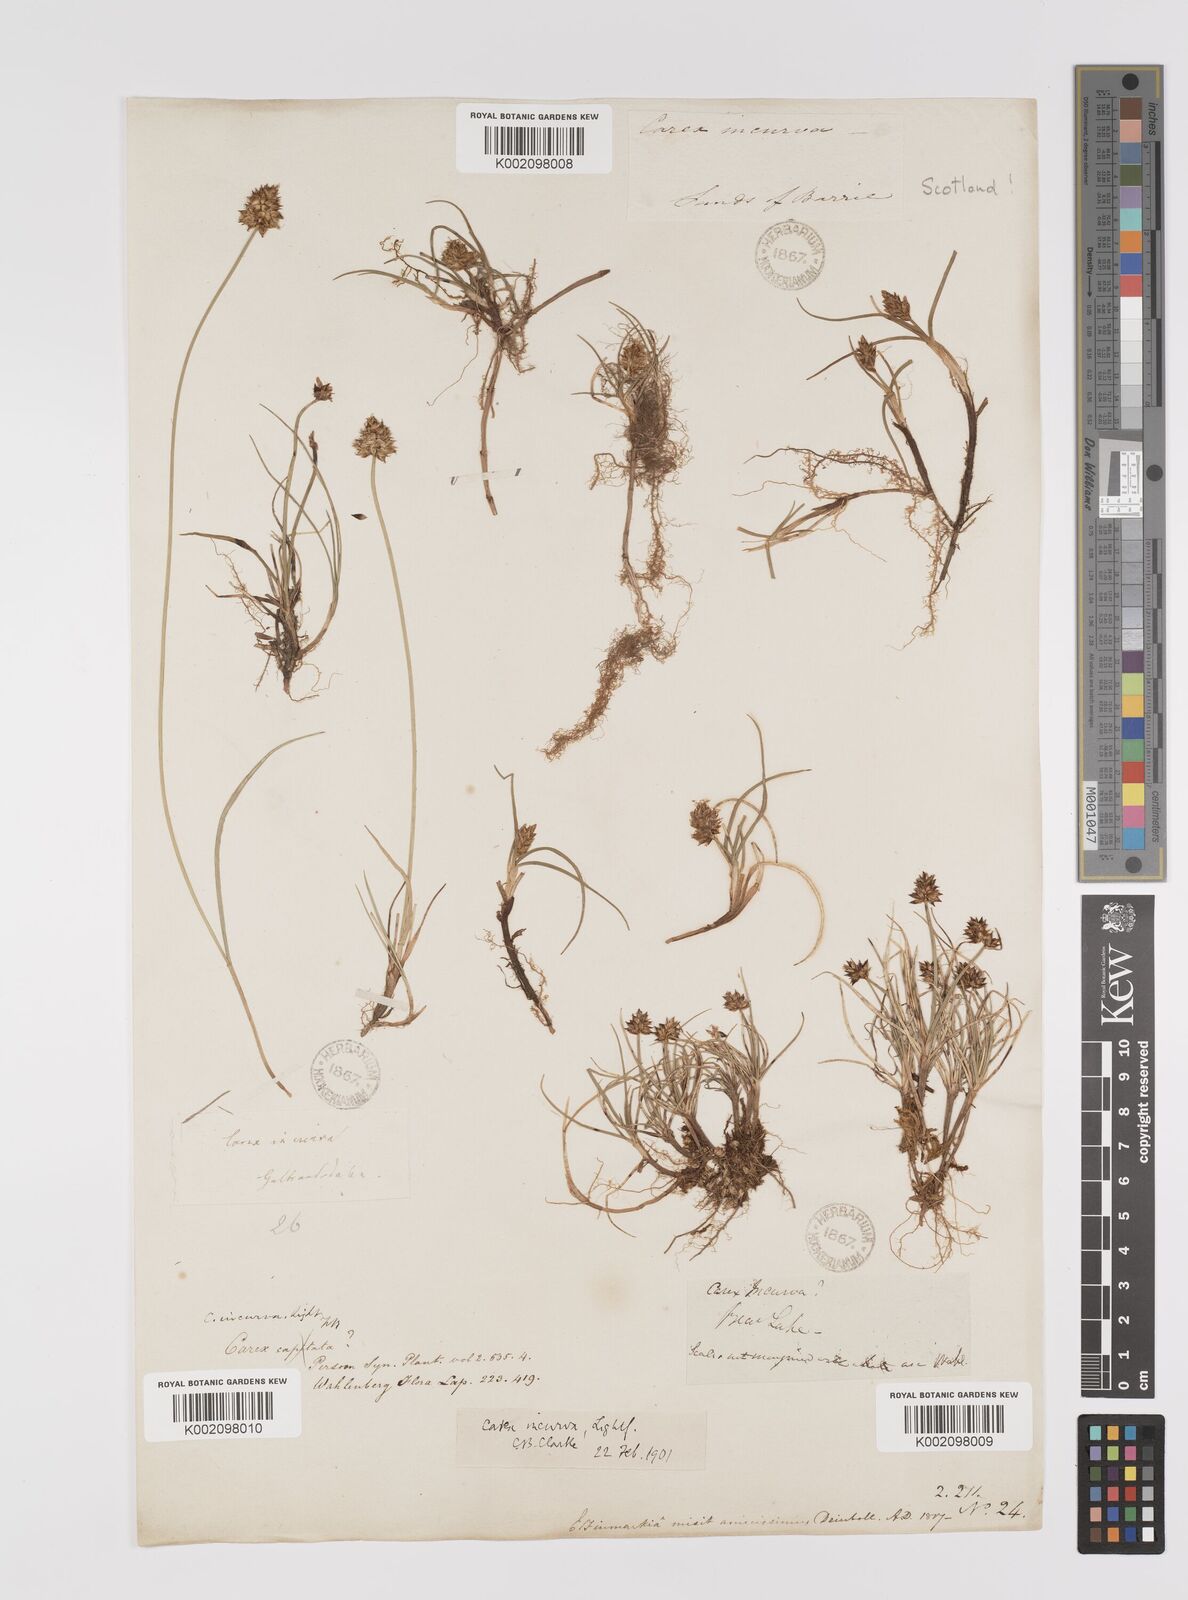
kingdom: Plantae
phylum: Tracheophyta
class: Liliopsida
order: Poales
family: Cyperaceae
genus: Carex
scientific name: Carex maritima
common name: Curved sedge
